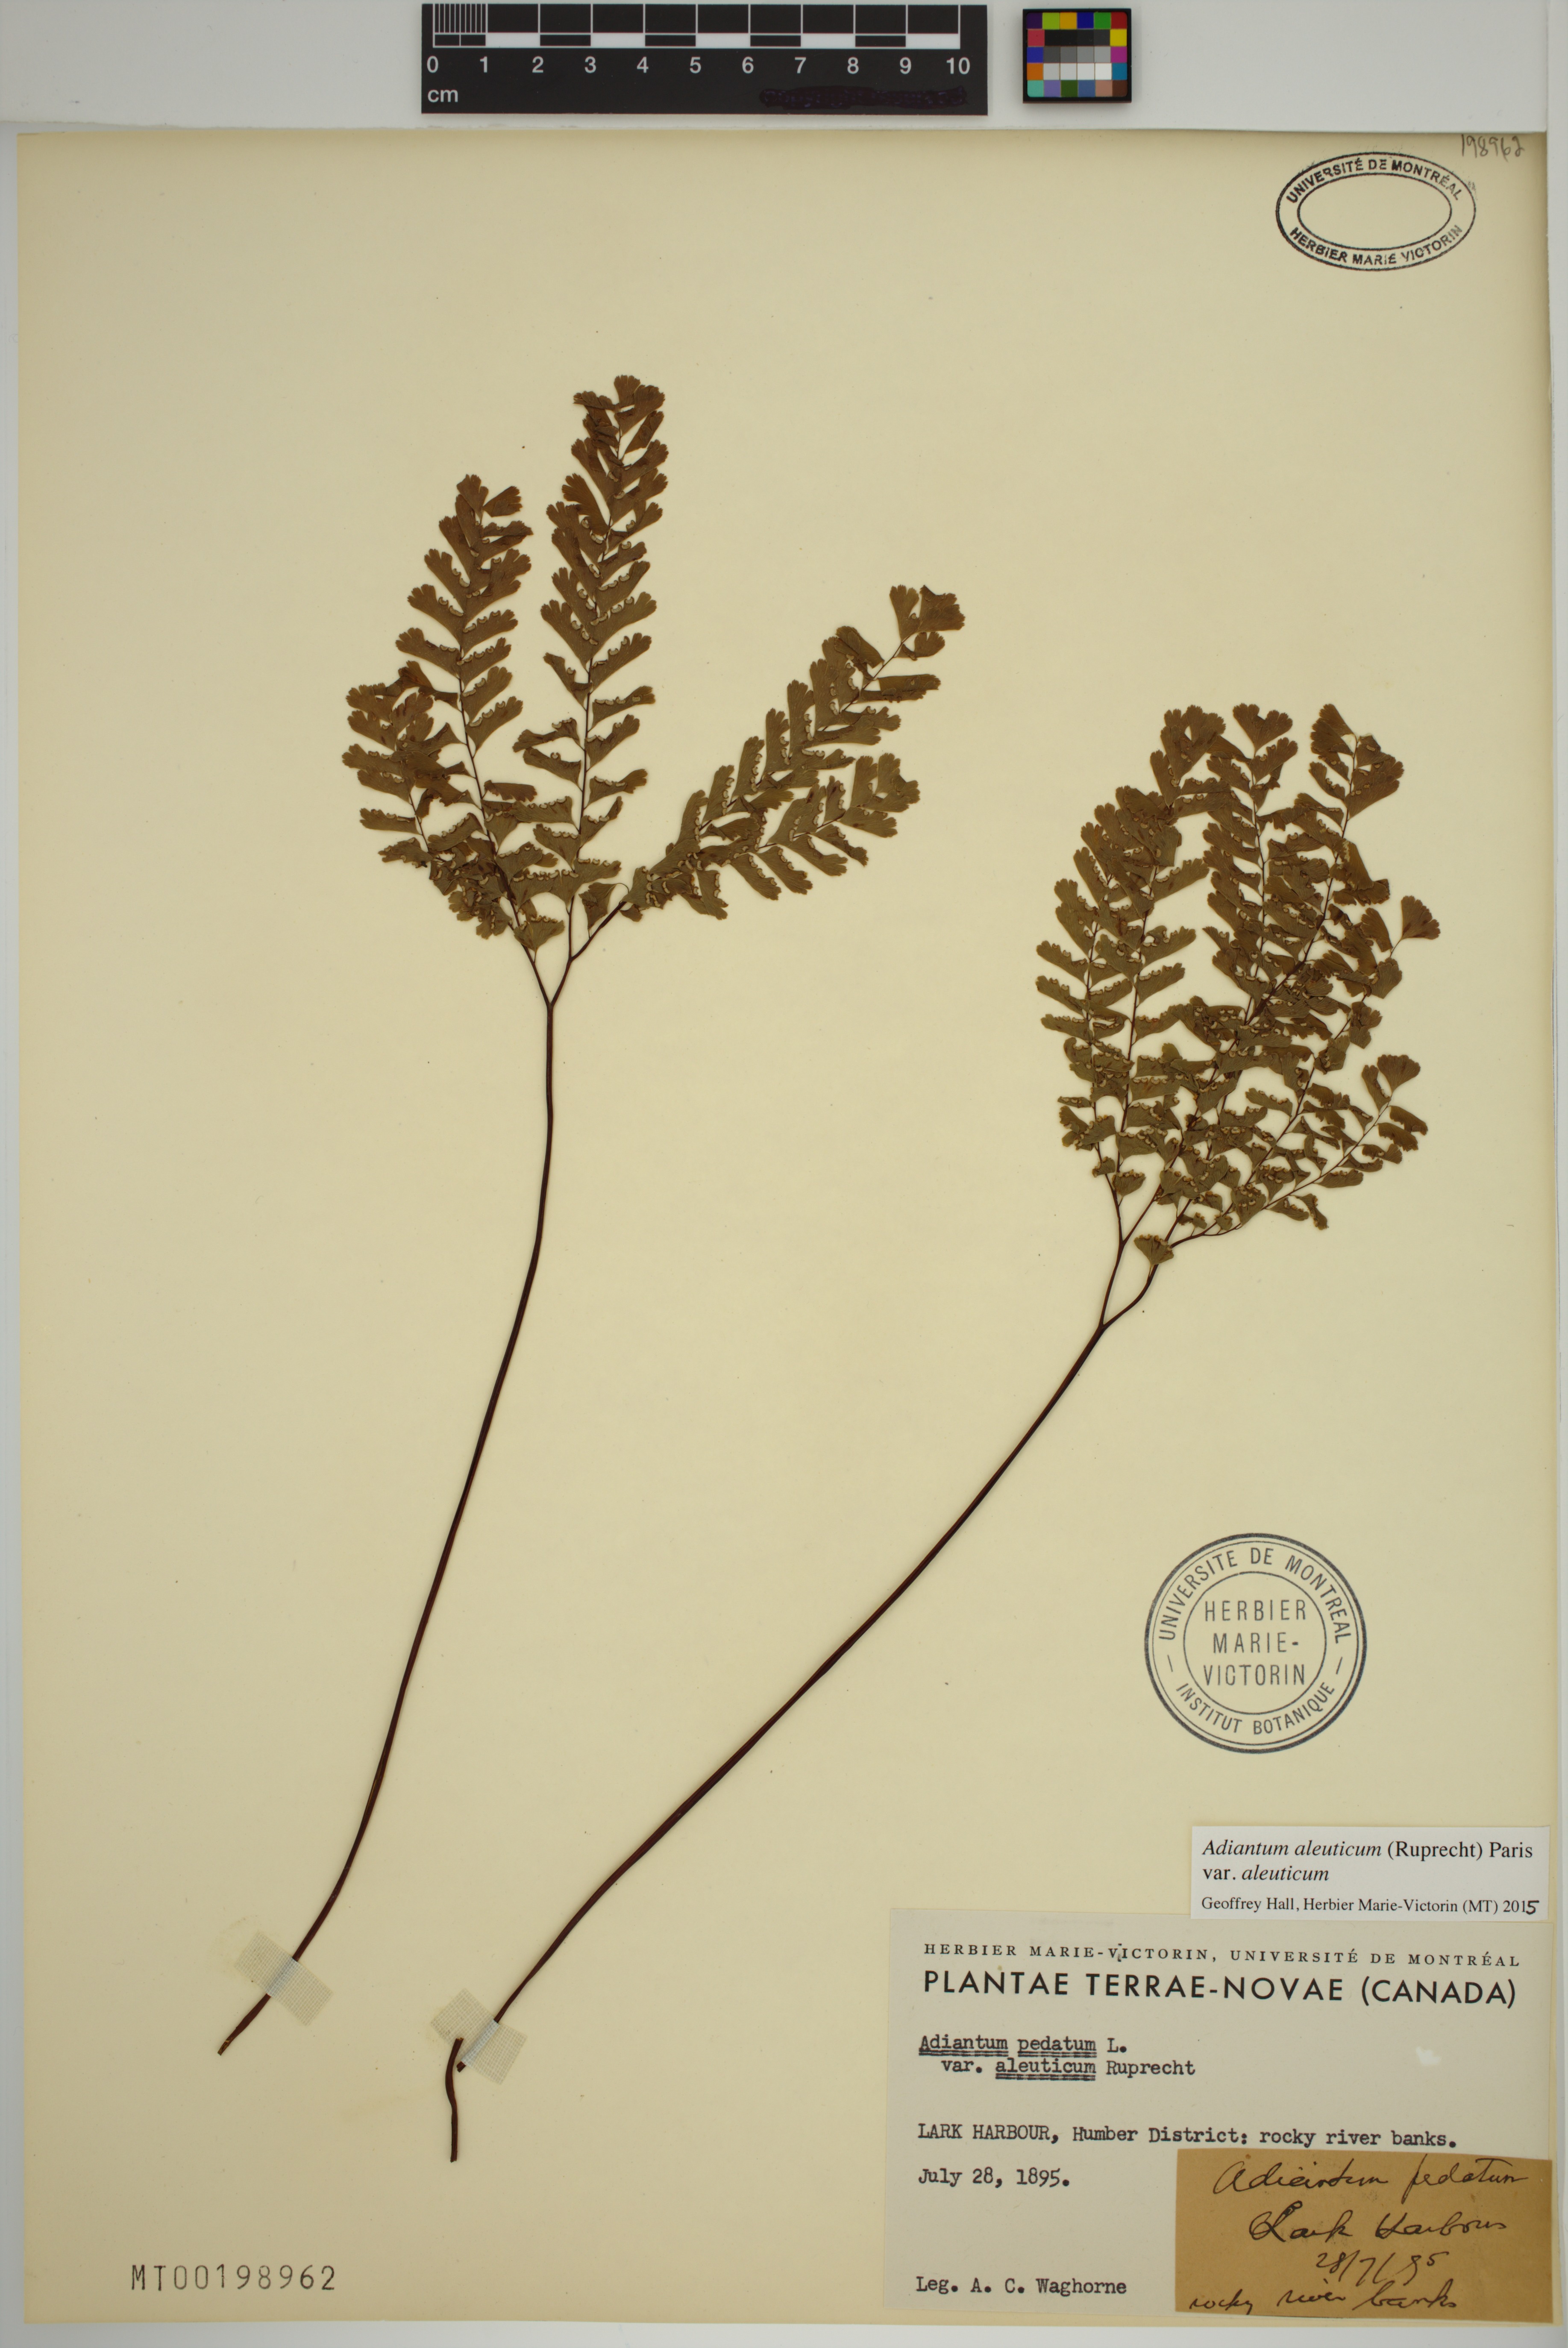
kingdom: Plantae
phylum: Tracheophyta
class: Polypodiopsida
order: Polypodiales
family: Pteridaceae
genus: Adiantum
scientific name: Adiantum aleuticum
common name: Aleutian maidenhair fern
